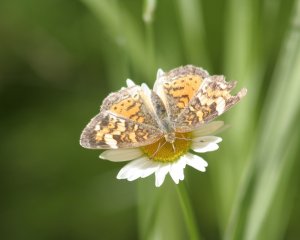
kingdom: Animalia
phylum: Arthropoda
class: Insecta
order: Lepidoptera
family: Nymphalidae
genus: Phyciodes
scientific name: Phyciodes tharos
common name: Northern Crescent
